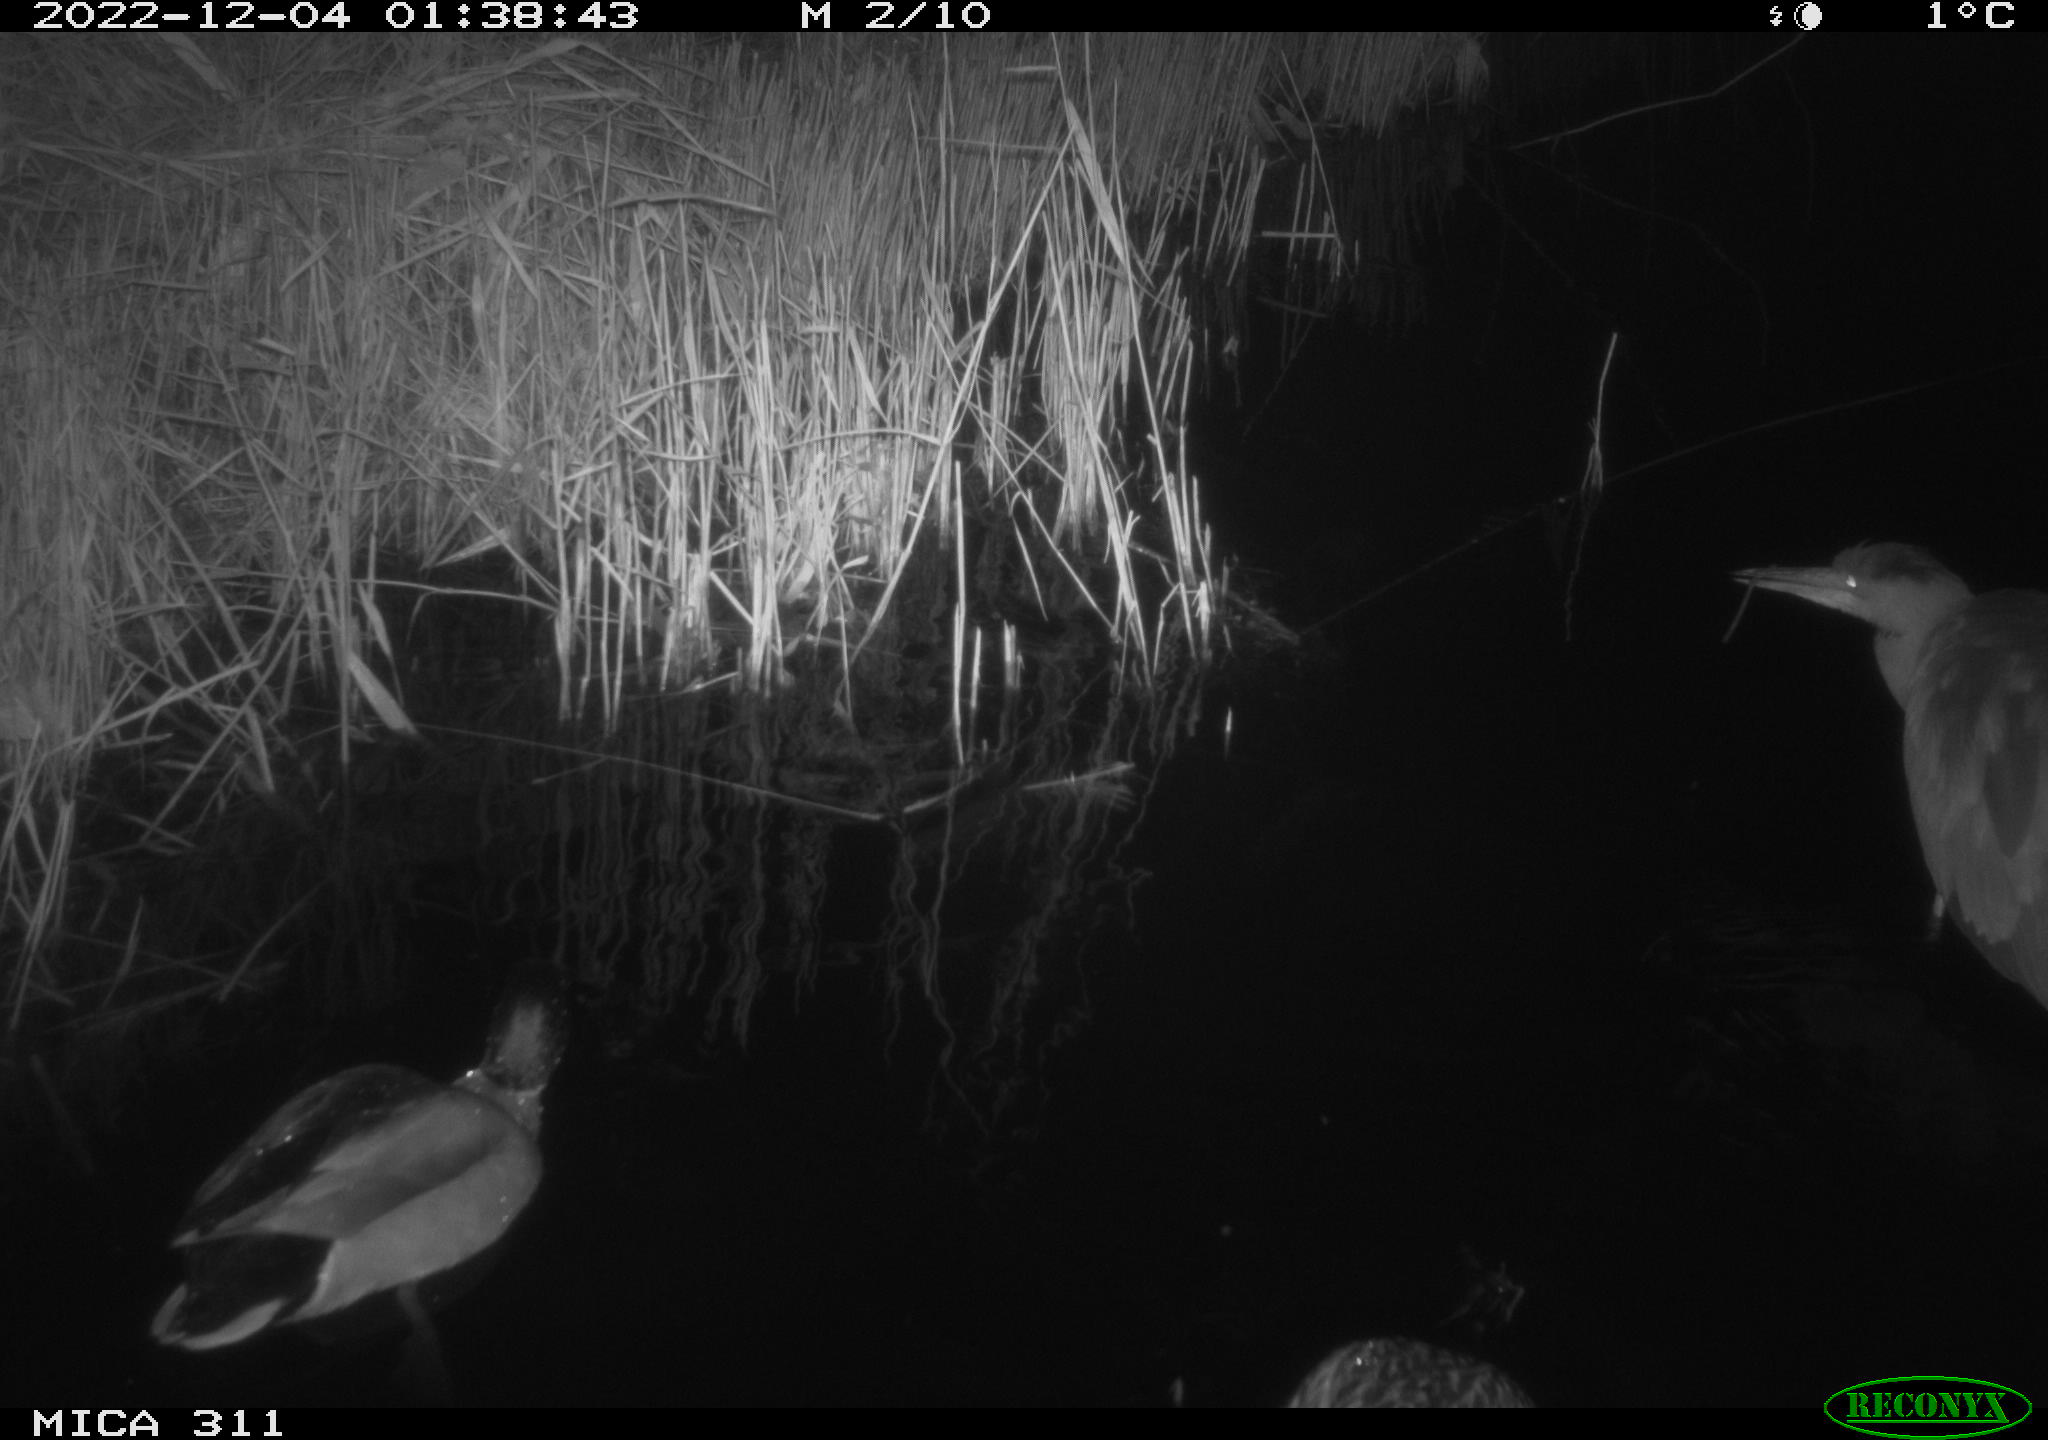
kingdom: Animalia
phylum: Chordata
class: Mammalia
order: Rodentia
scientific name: Rodentia
